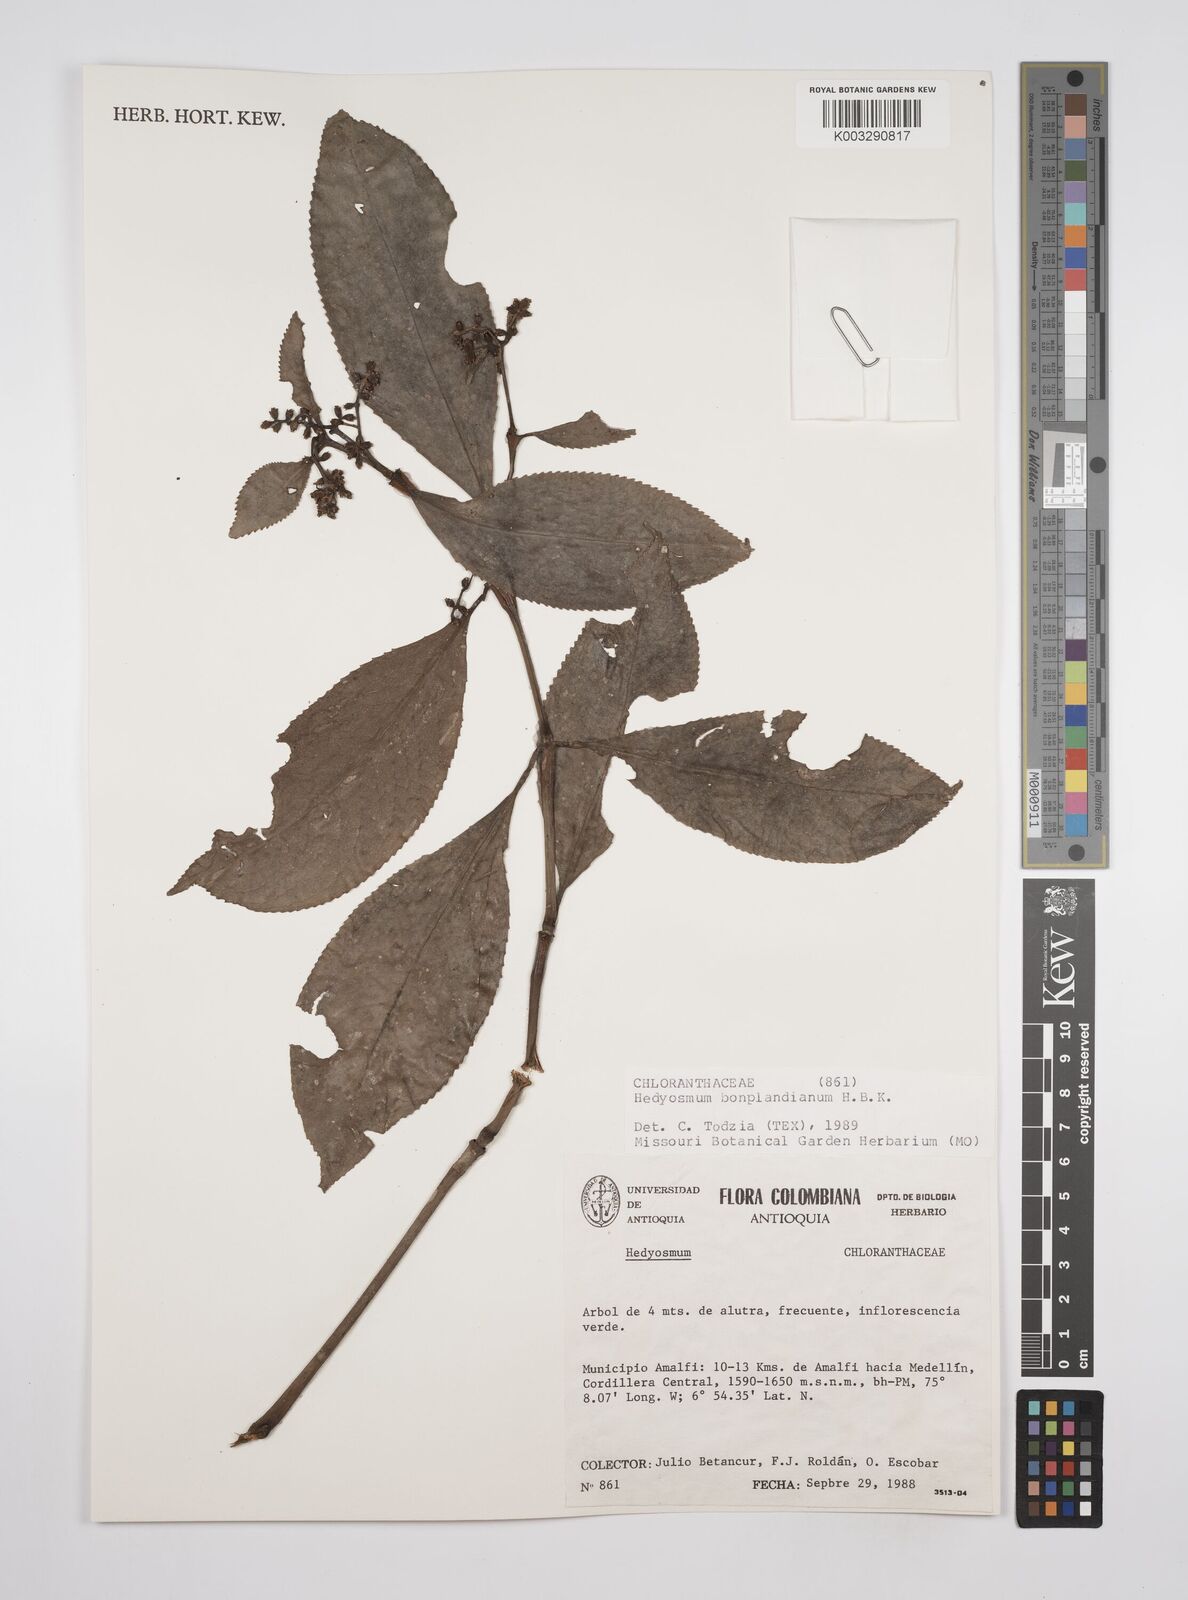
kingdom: Plantae
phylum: Tracheophyta
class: Magnoliopsida
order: Chloranthales
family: Chloranthaceae
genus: Hedyosmum
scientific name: Hedyosmum
